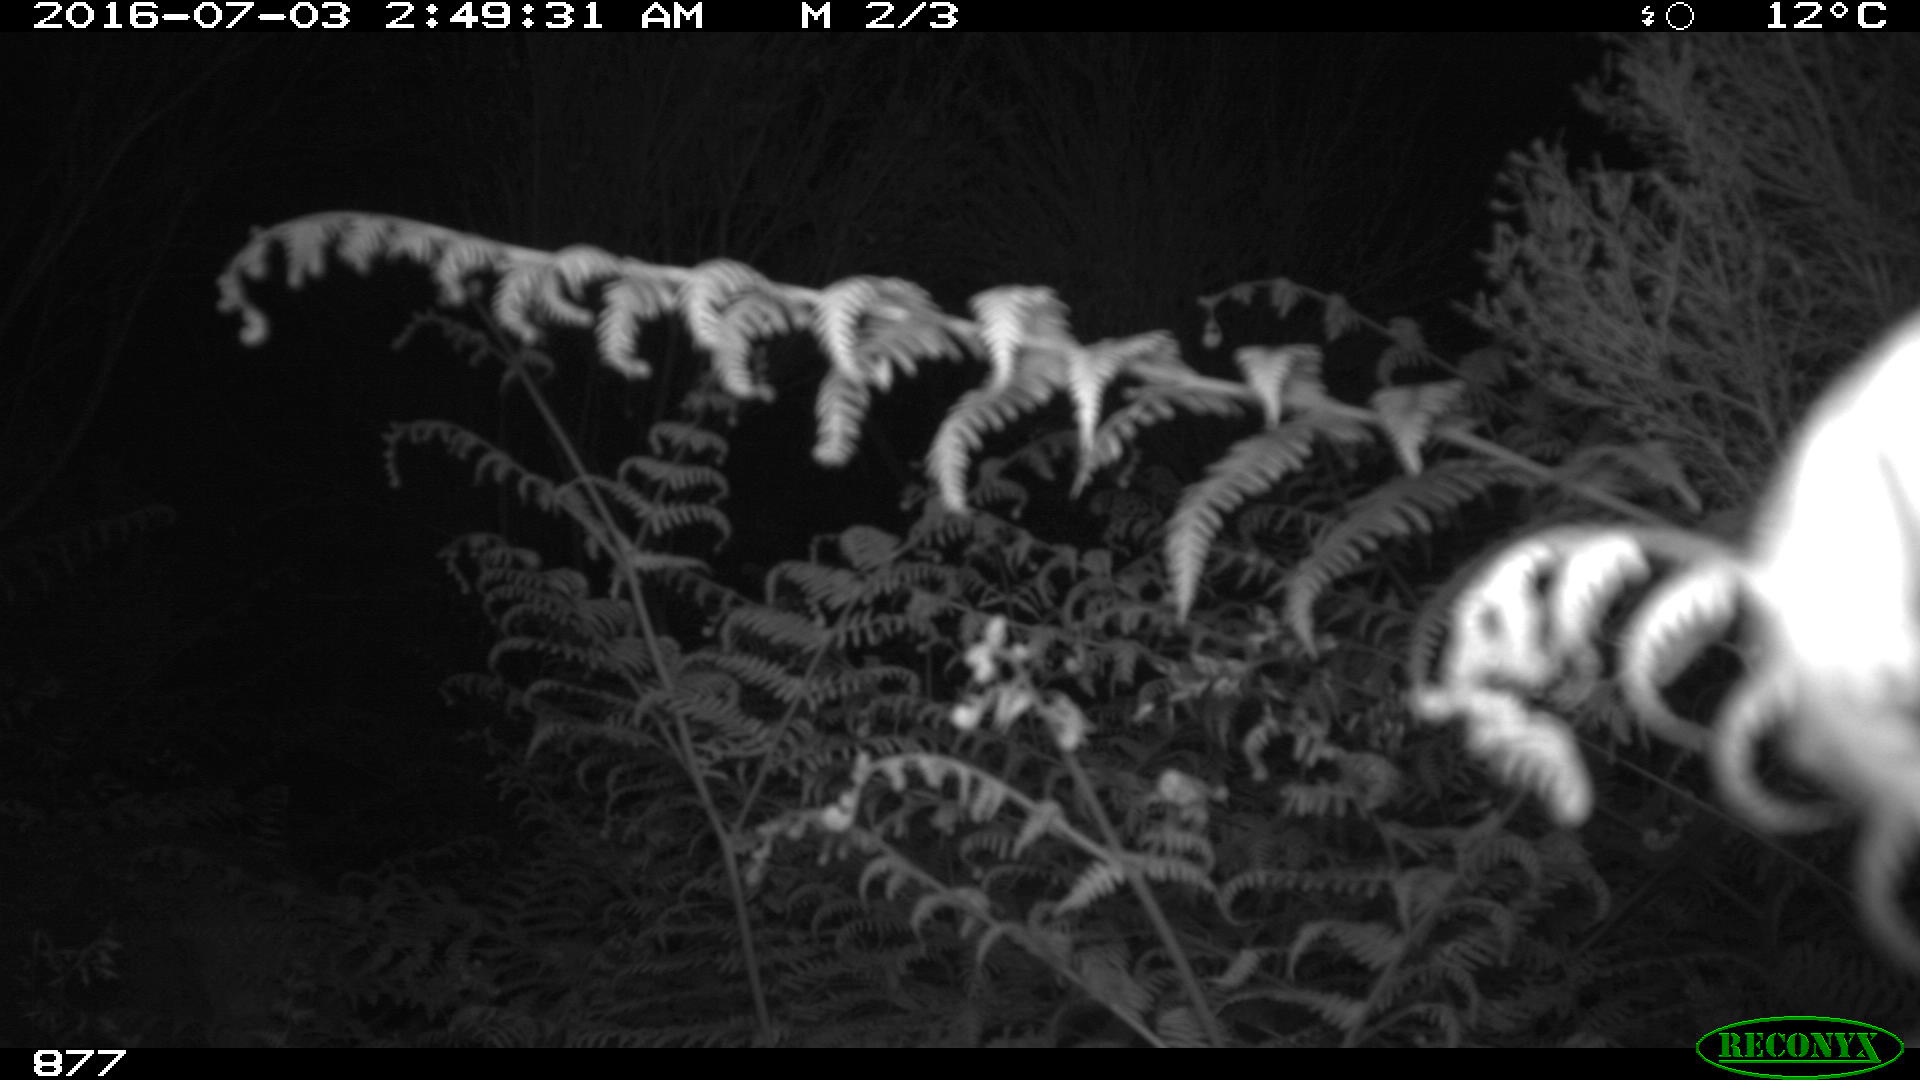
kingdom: Animalia
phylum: Chordata
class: Mammalia
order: Artiodactyla
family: Cervidae
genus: Capreolus
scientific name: Capreolus capreolus
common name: Western roe deer
